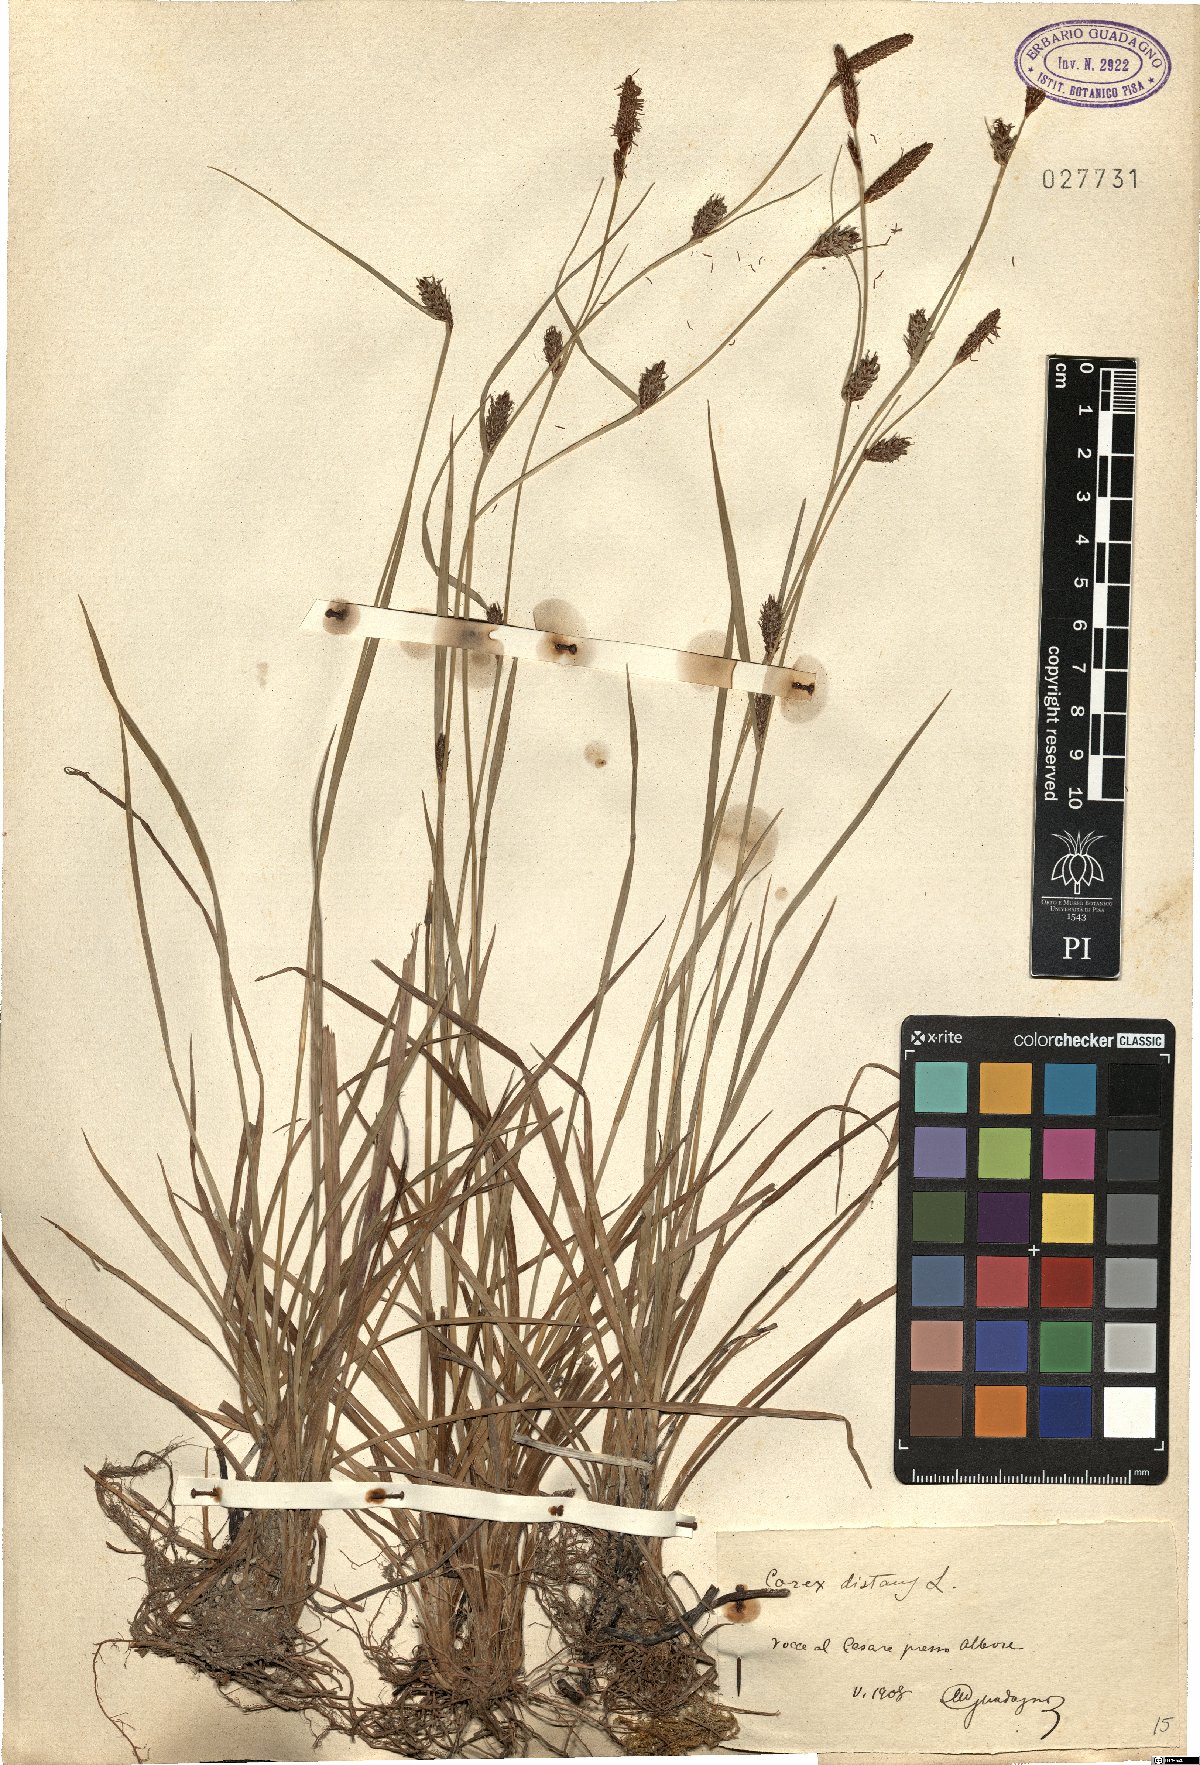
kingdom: Plantae
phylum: Tracheophyta
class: Liliopsida
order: Poales
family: Cyperaceae
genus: Carex
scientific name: Carex distans
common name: Distant sedge
